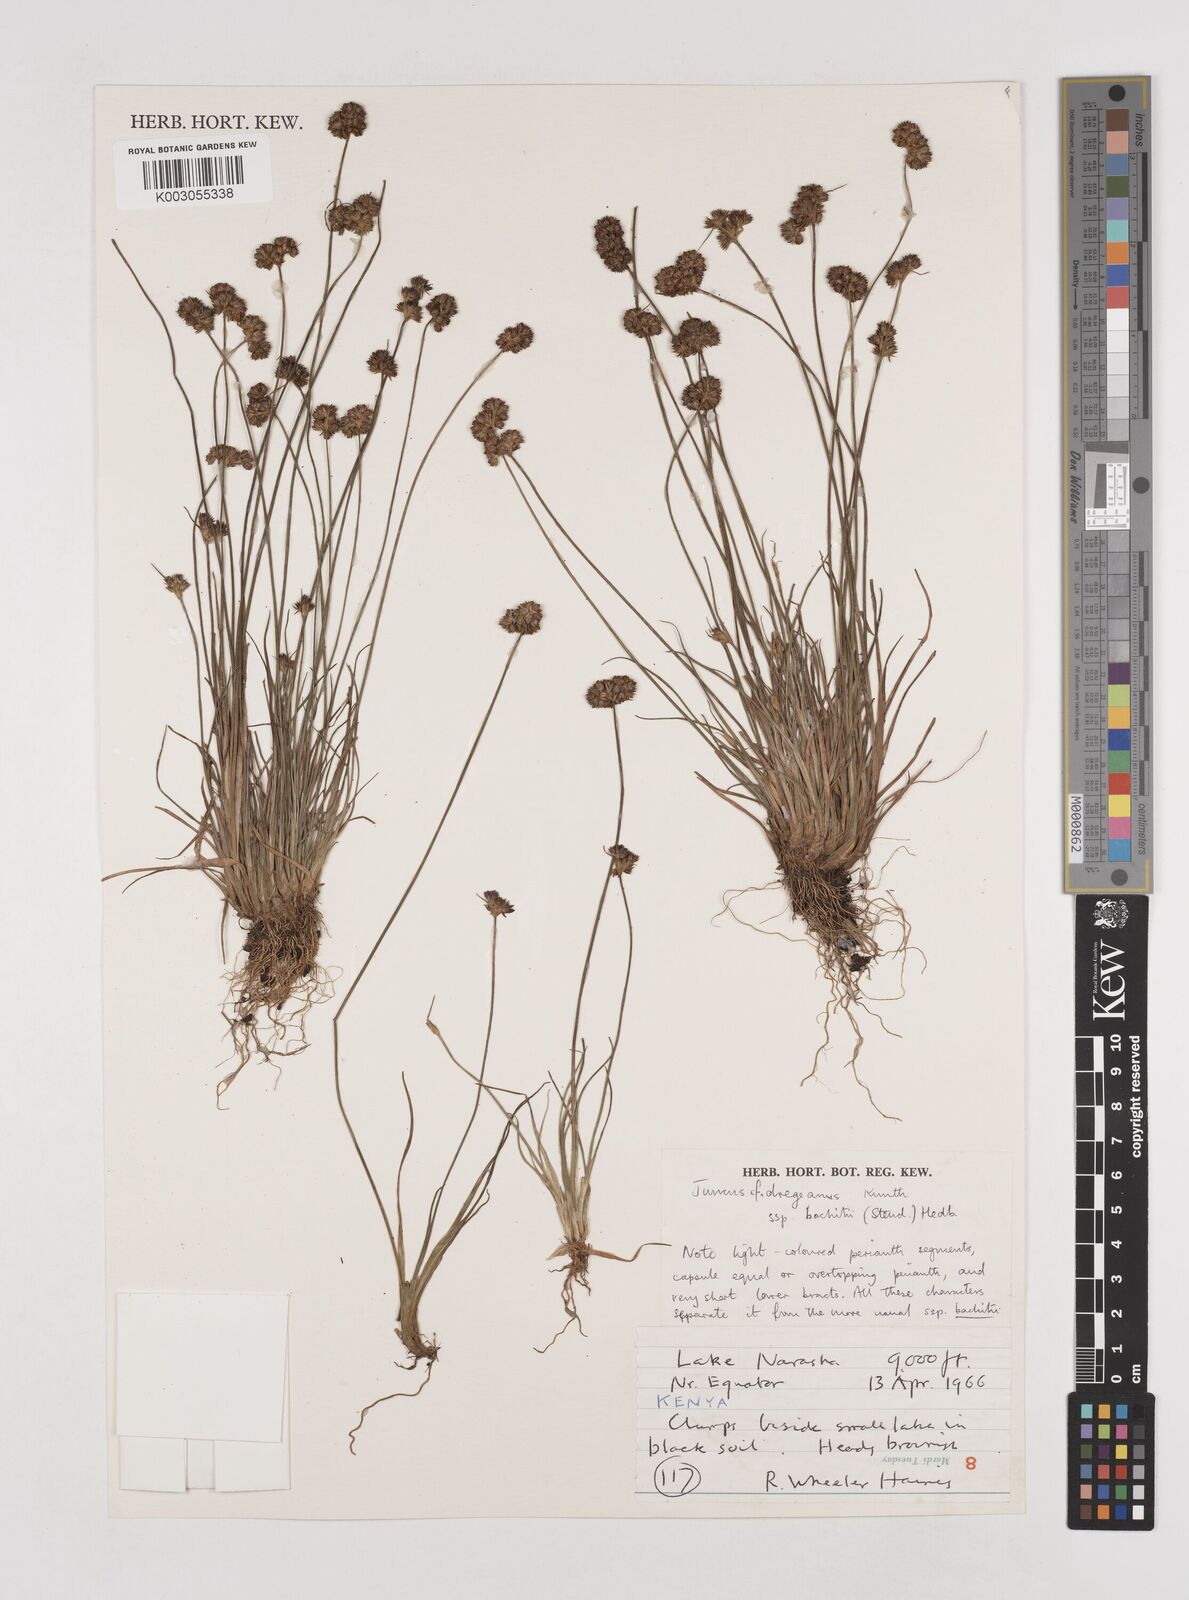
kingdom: Plantae
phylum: Tracheophyta
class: Liliopsida
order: Poales
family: Juncaceae
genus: Juncus
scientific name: Juncus dregeanus
